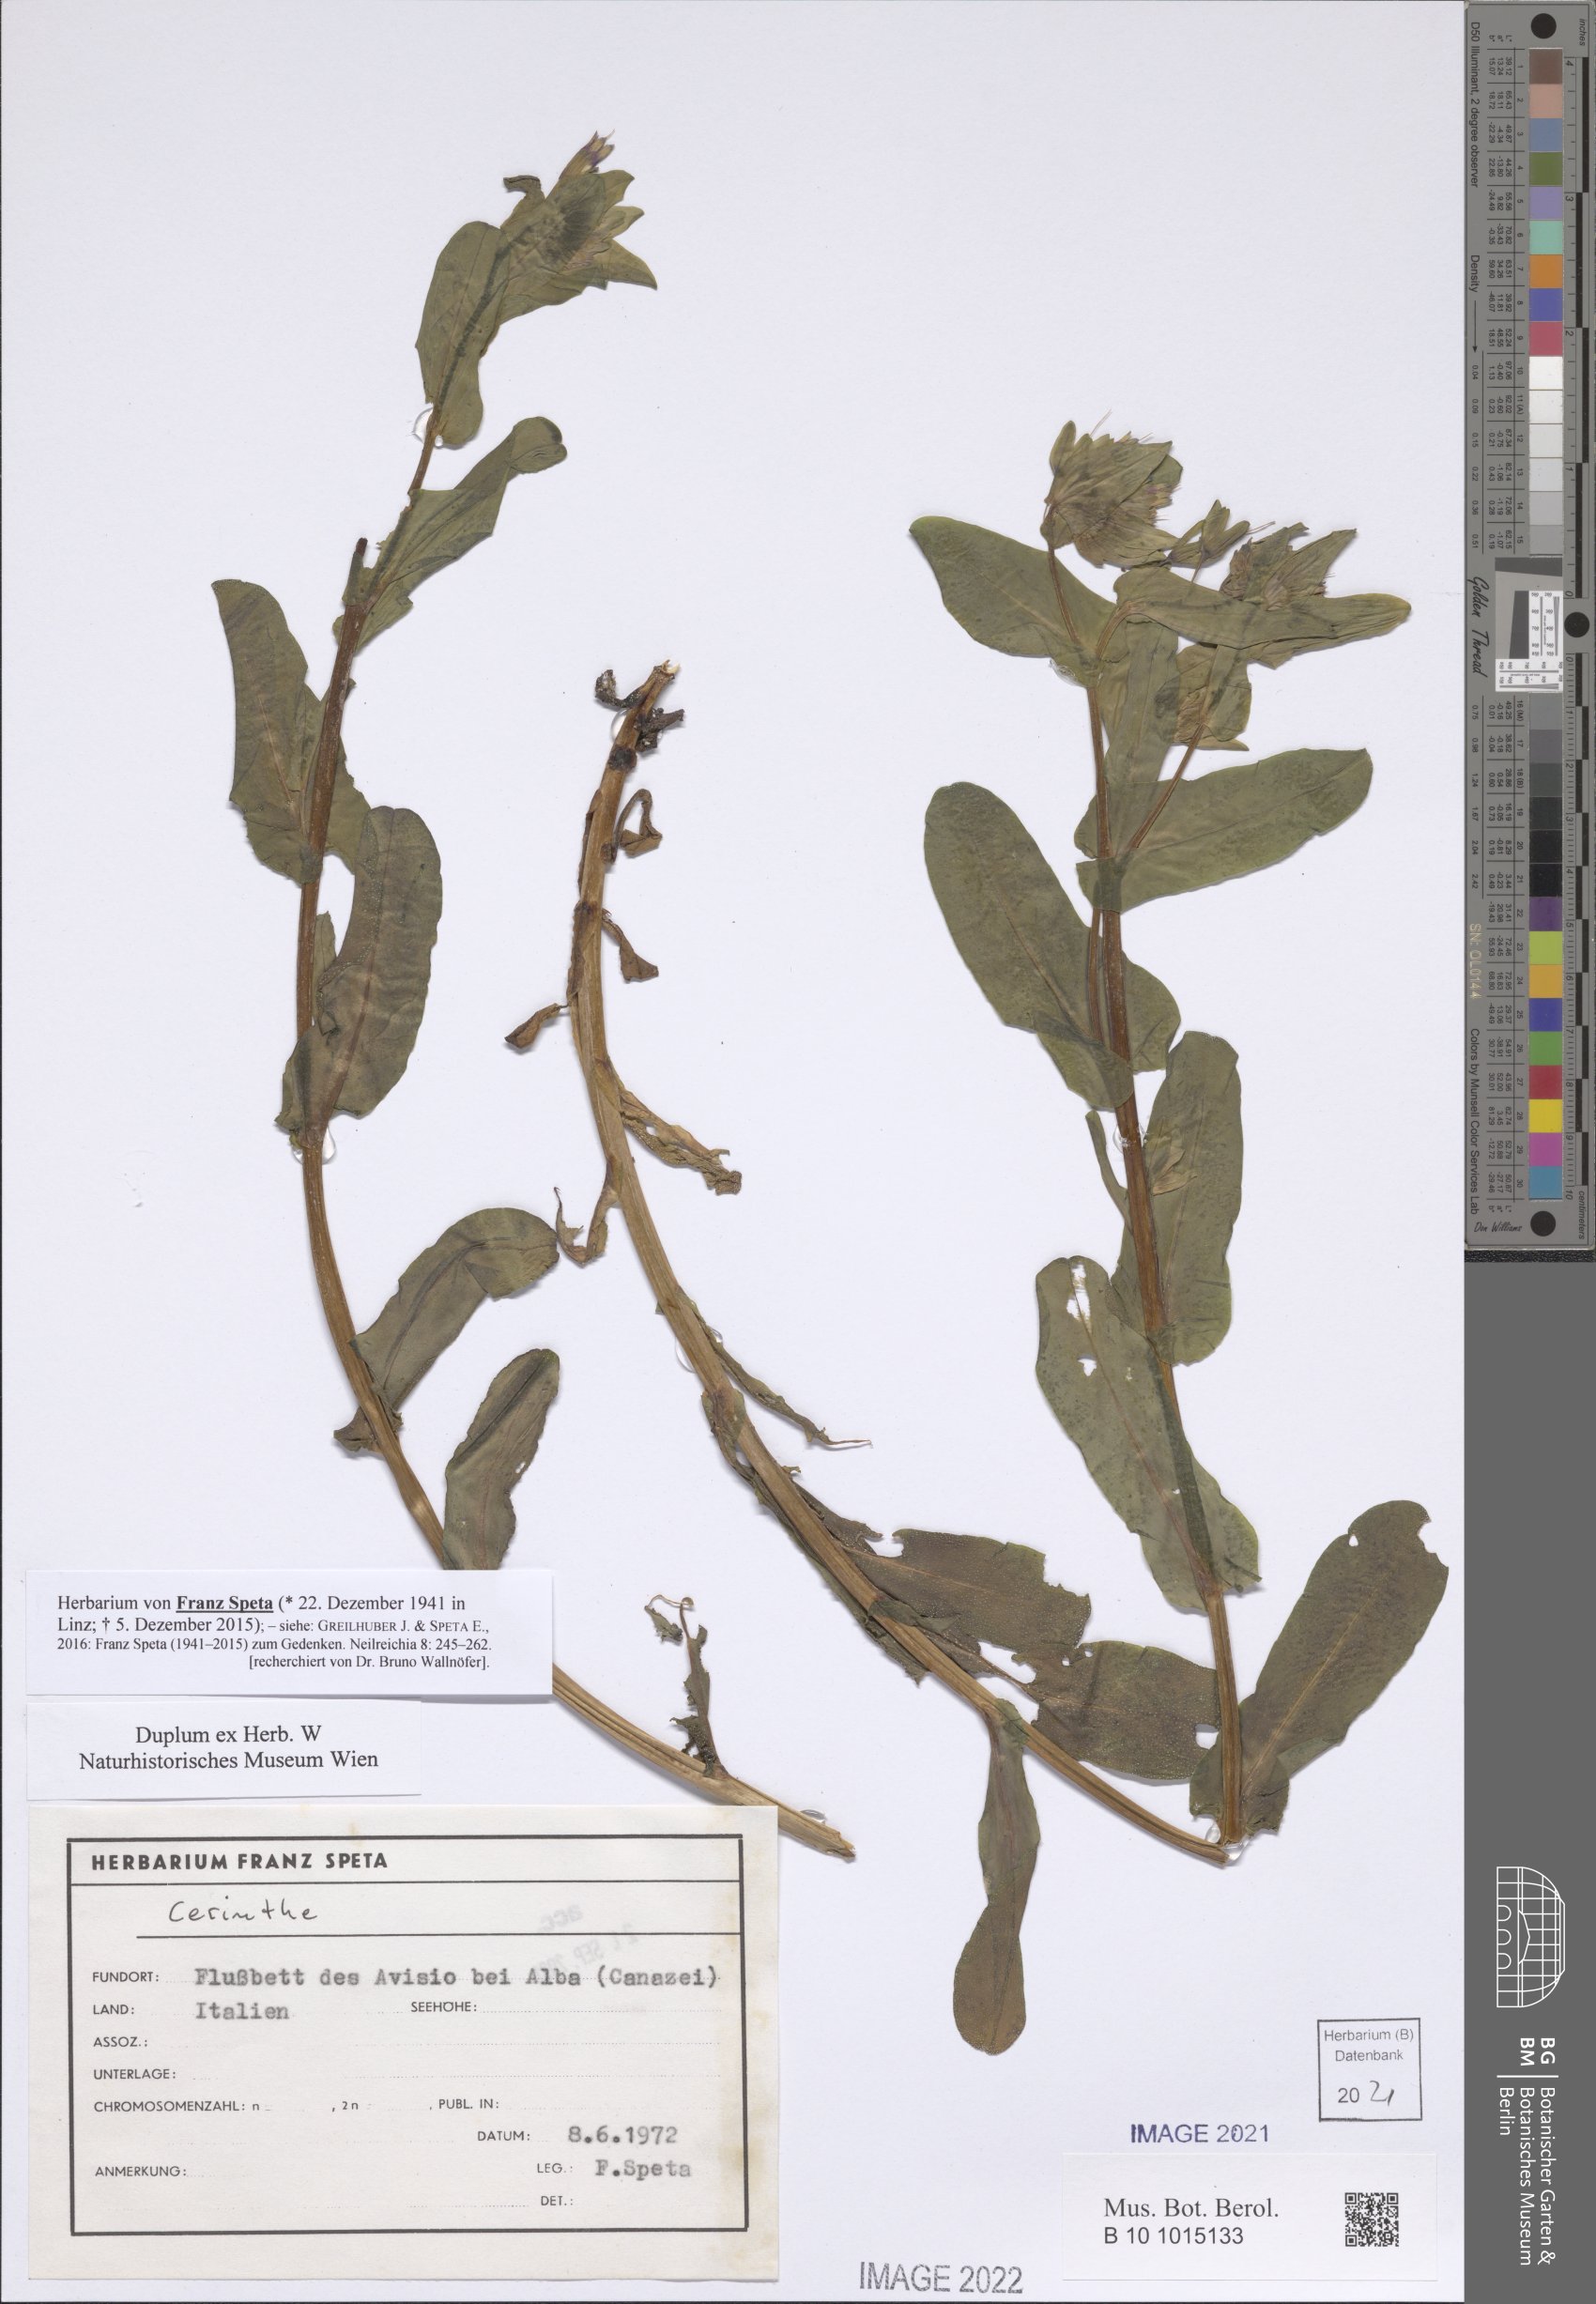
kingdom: Plantae
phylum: Tracheophyta
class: Magnoliopsida
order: Boraginales
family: Boraginaceae
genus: Cerinthe
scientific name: Cerinthe
